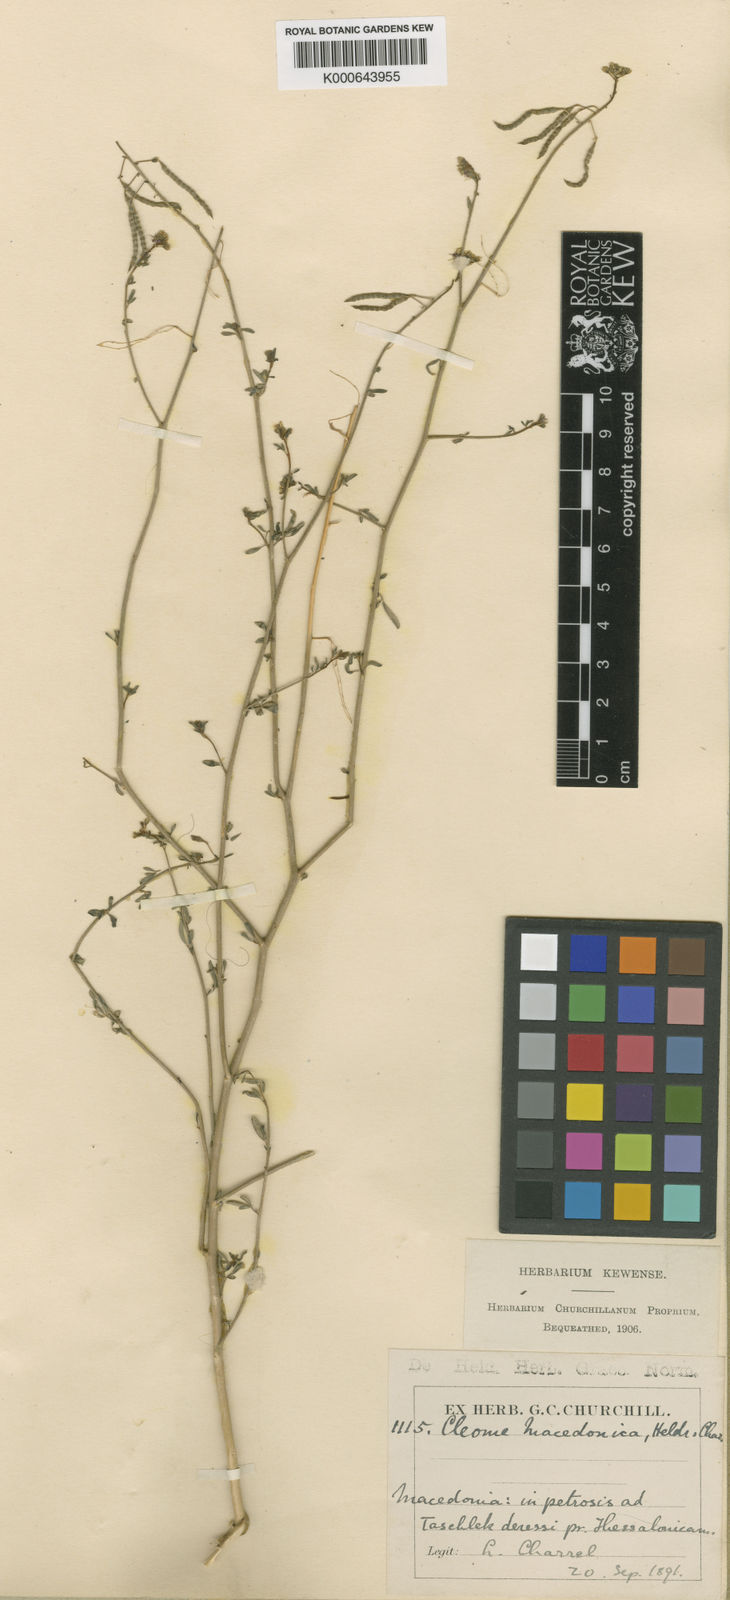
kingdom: Plantae
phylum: Tracheophyta
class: Magnoliopsida
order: Brassicales
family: Cleomaceae
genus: Cleome
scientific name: Cleome ornithopodioides
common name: Bird spiderflower
